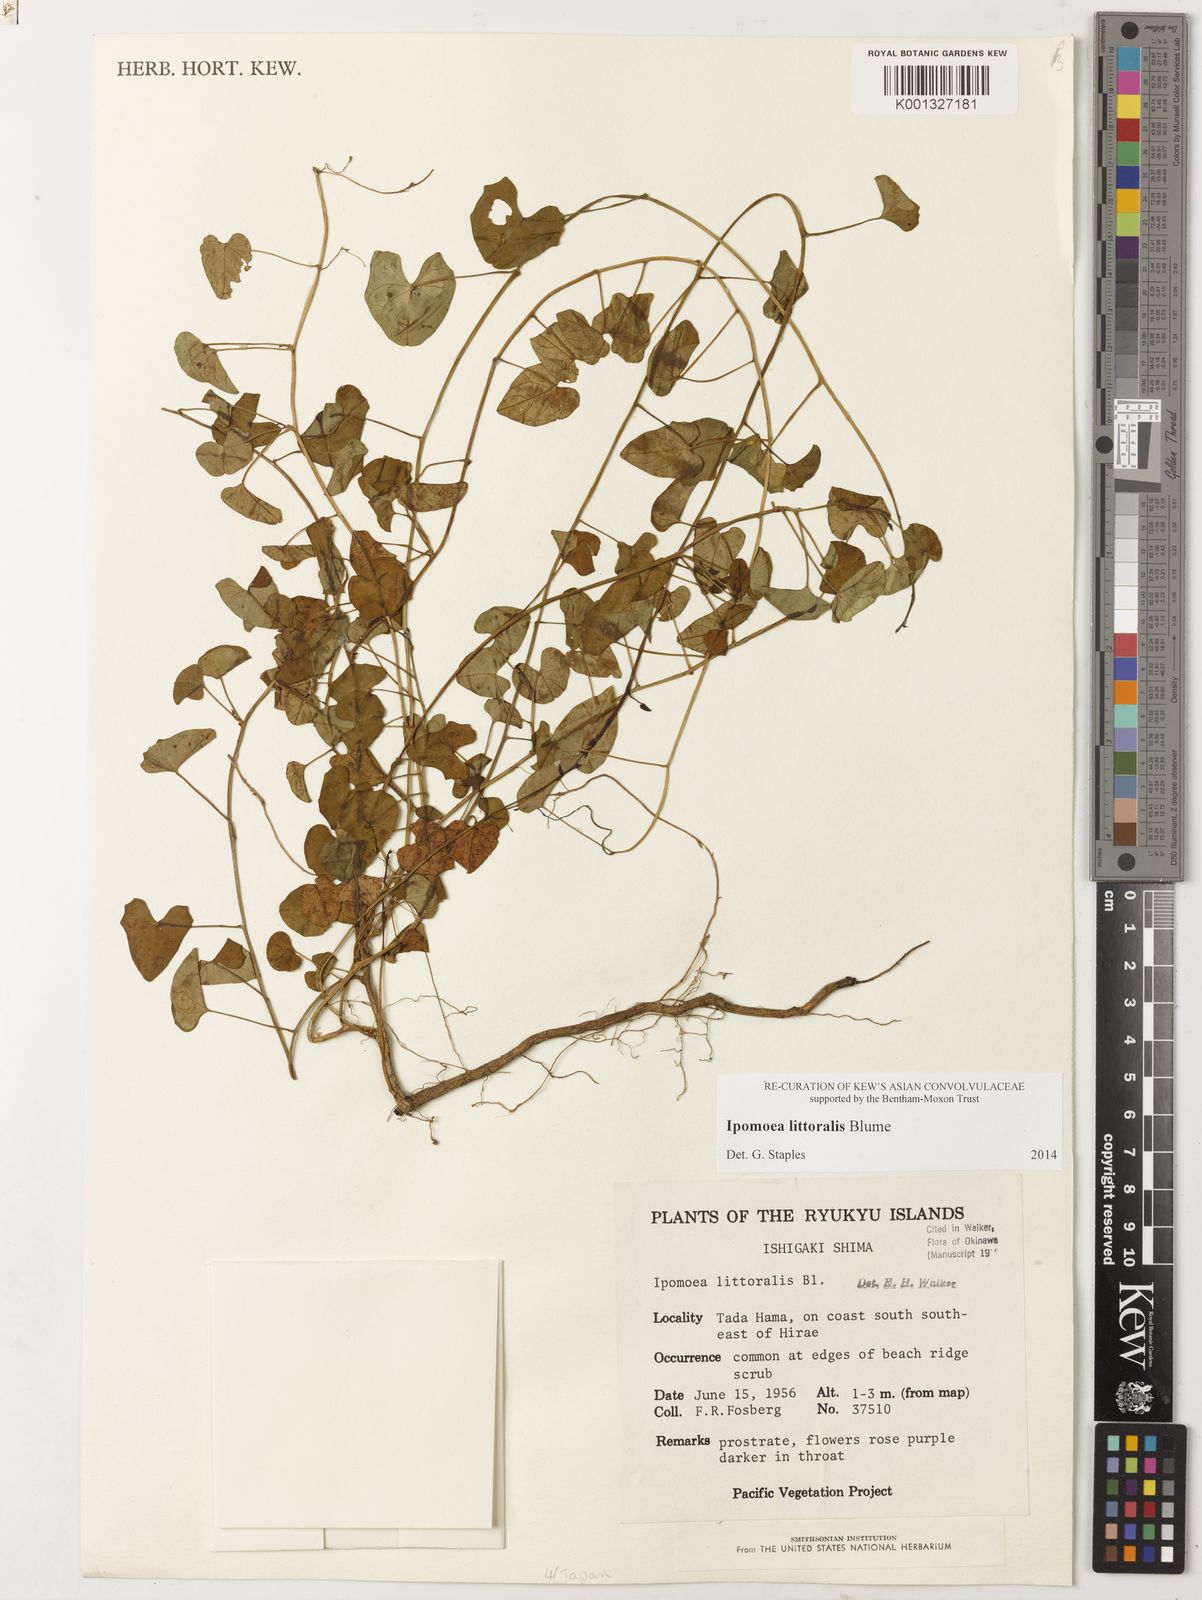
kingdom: Plantae
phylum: Tracheophyta
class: Magnoliopsida
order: Solanales
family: Convolvulaceae
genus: Ipomoea
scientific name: Ipomoea littoralis
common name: Coastal morning glory
